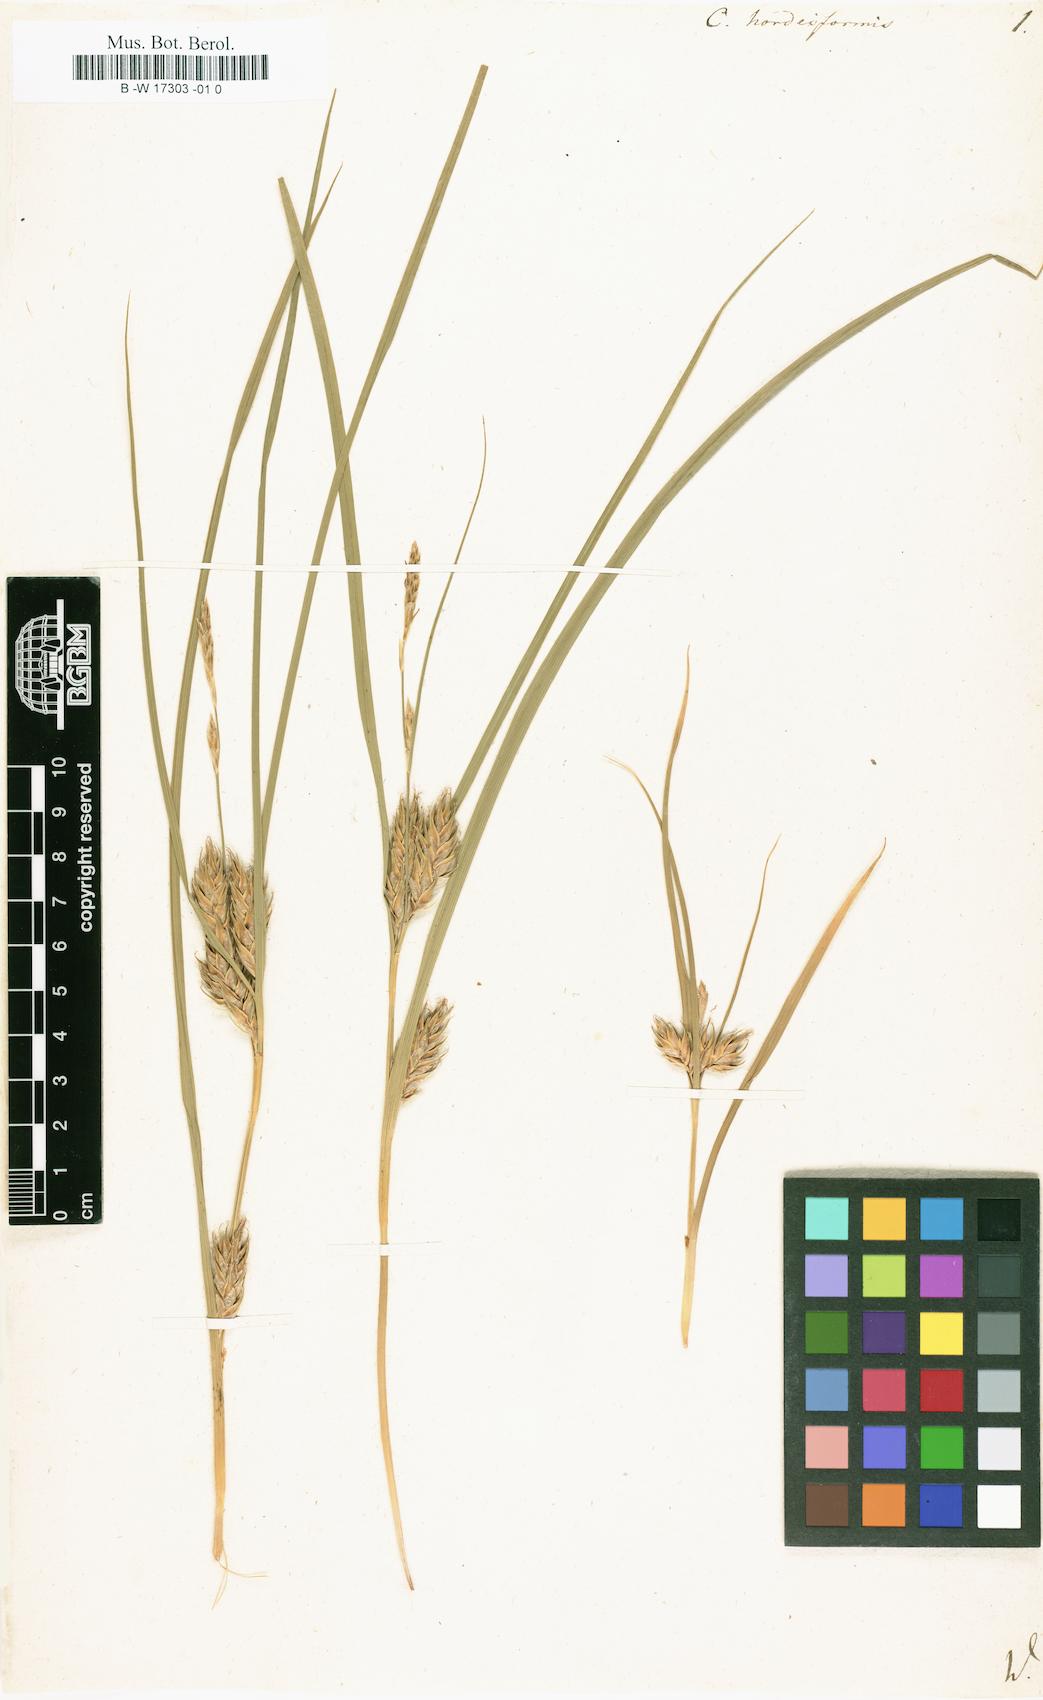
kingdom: Plantae
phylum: Tracheophyta
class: Liliopsida
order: Poales
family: Cyperaceae
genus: Carex
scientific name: Carex hordeistichos
